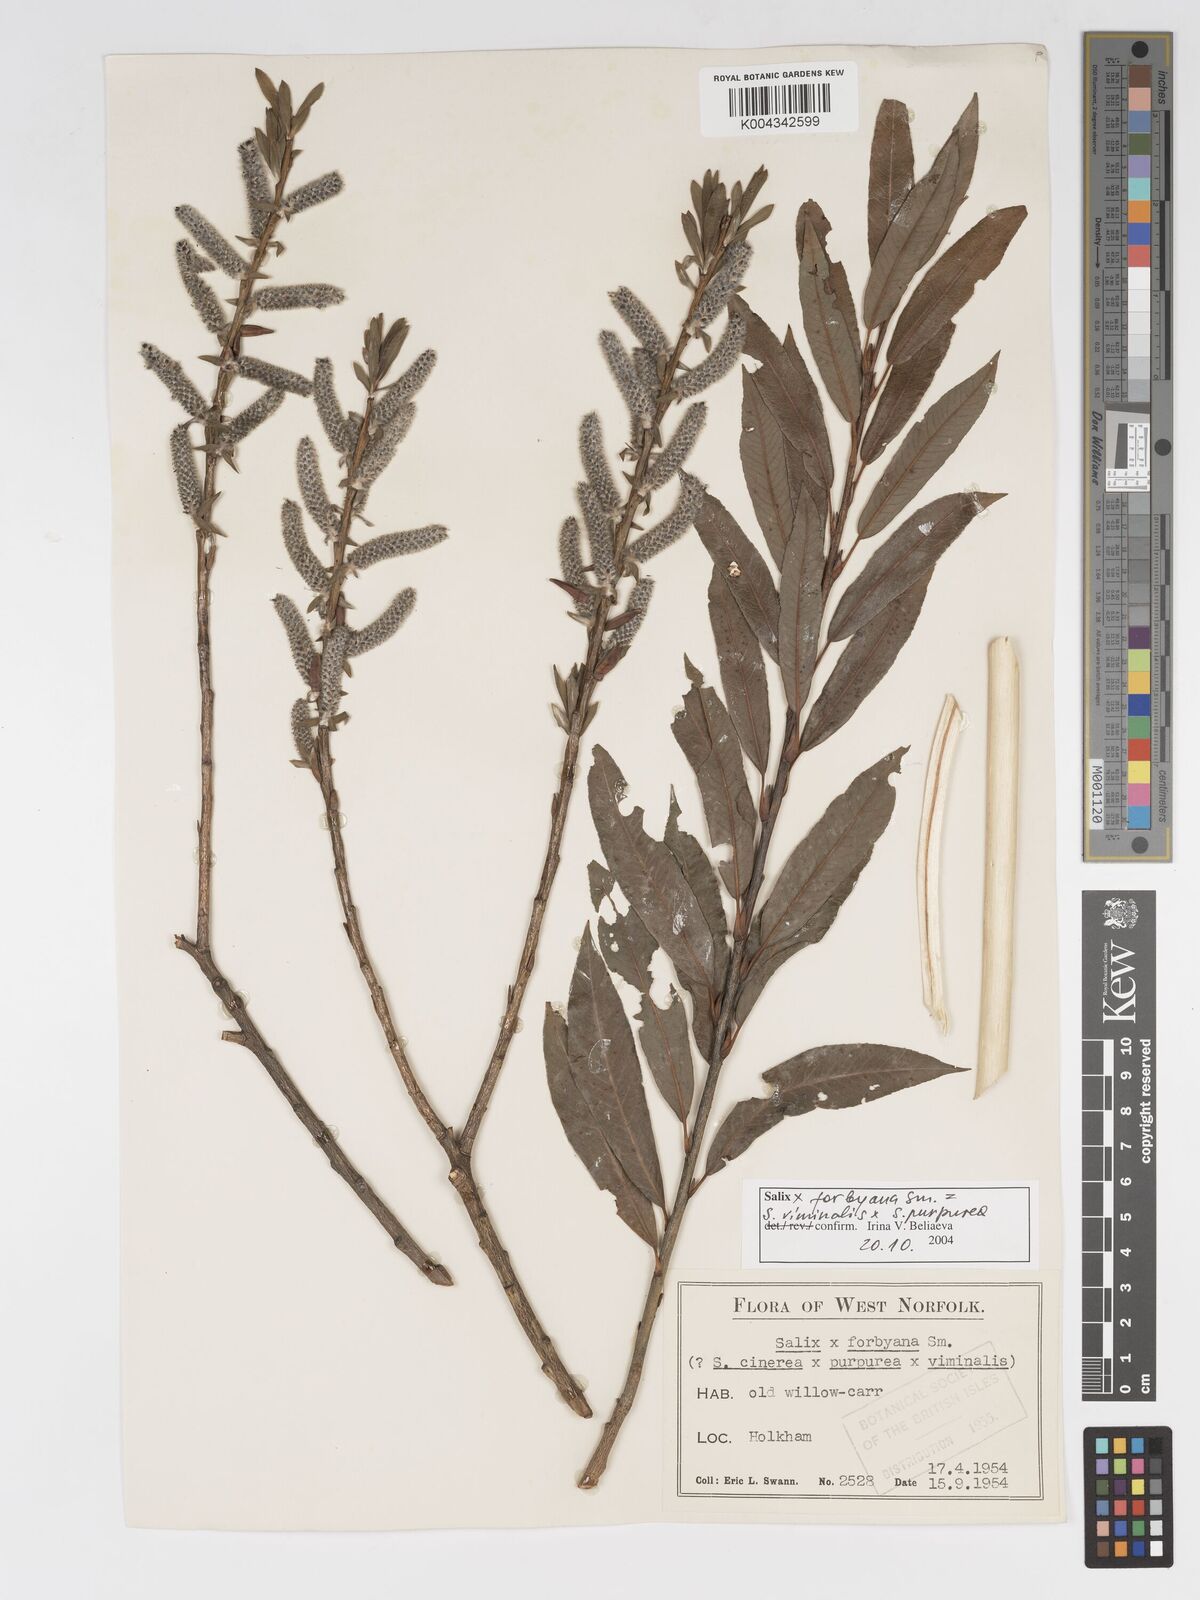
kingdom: Plantae
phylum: Tracheophyta
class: Magnoliopsida
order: Malpighiales
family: Salicaceae
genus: Salix
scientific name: Salix cinerea
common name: Common sallow
